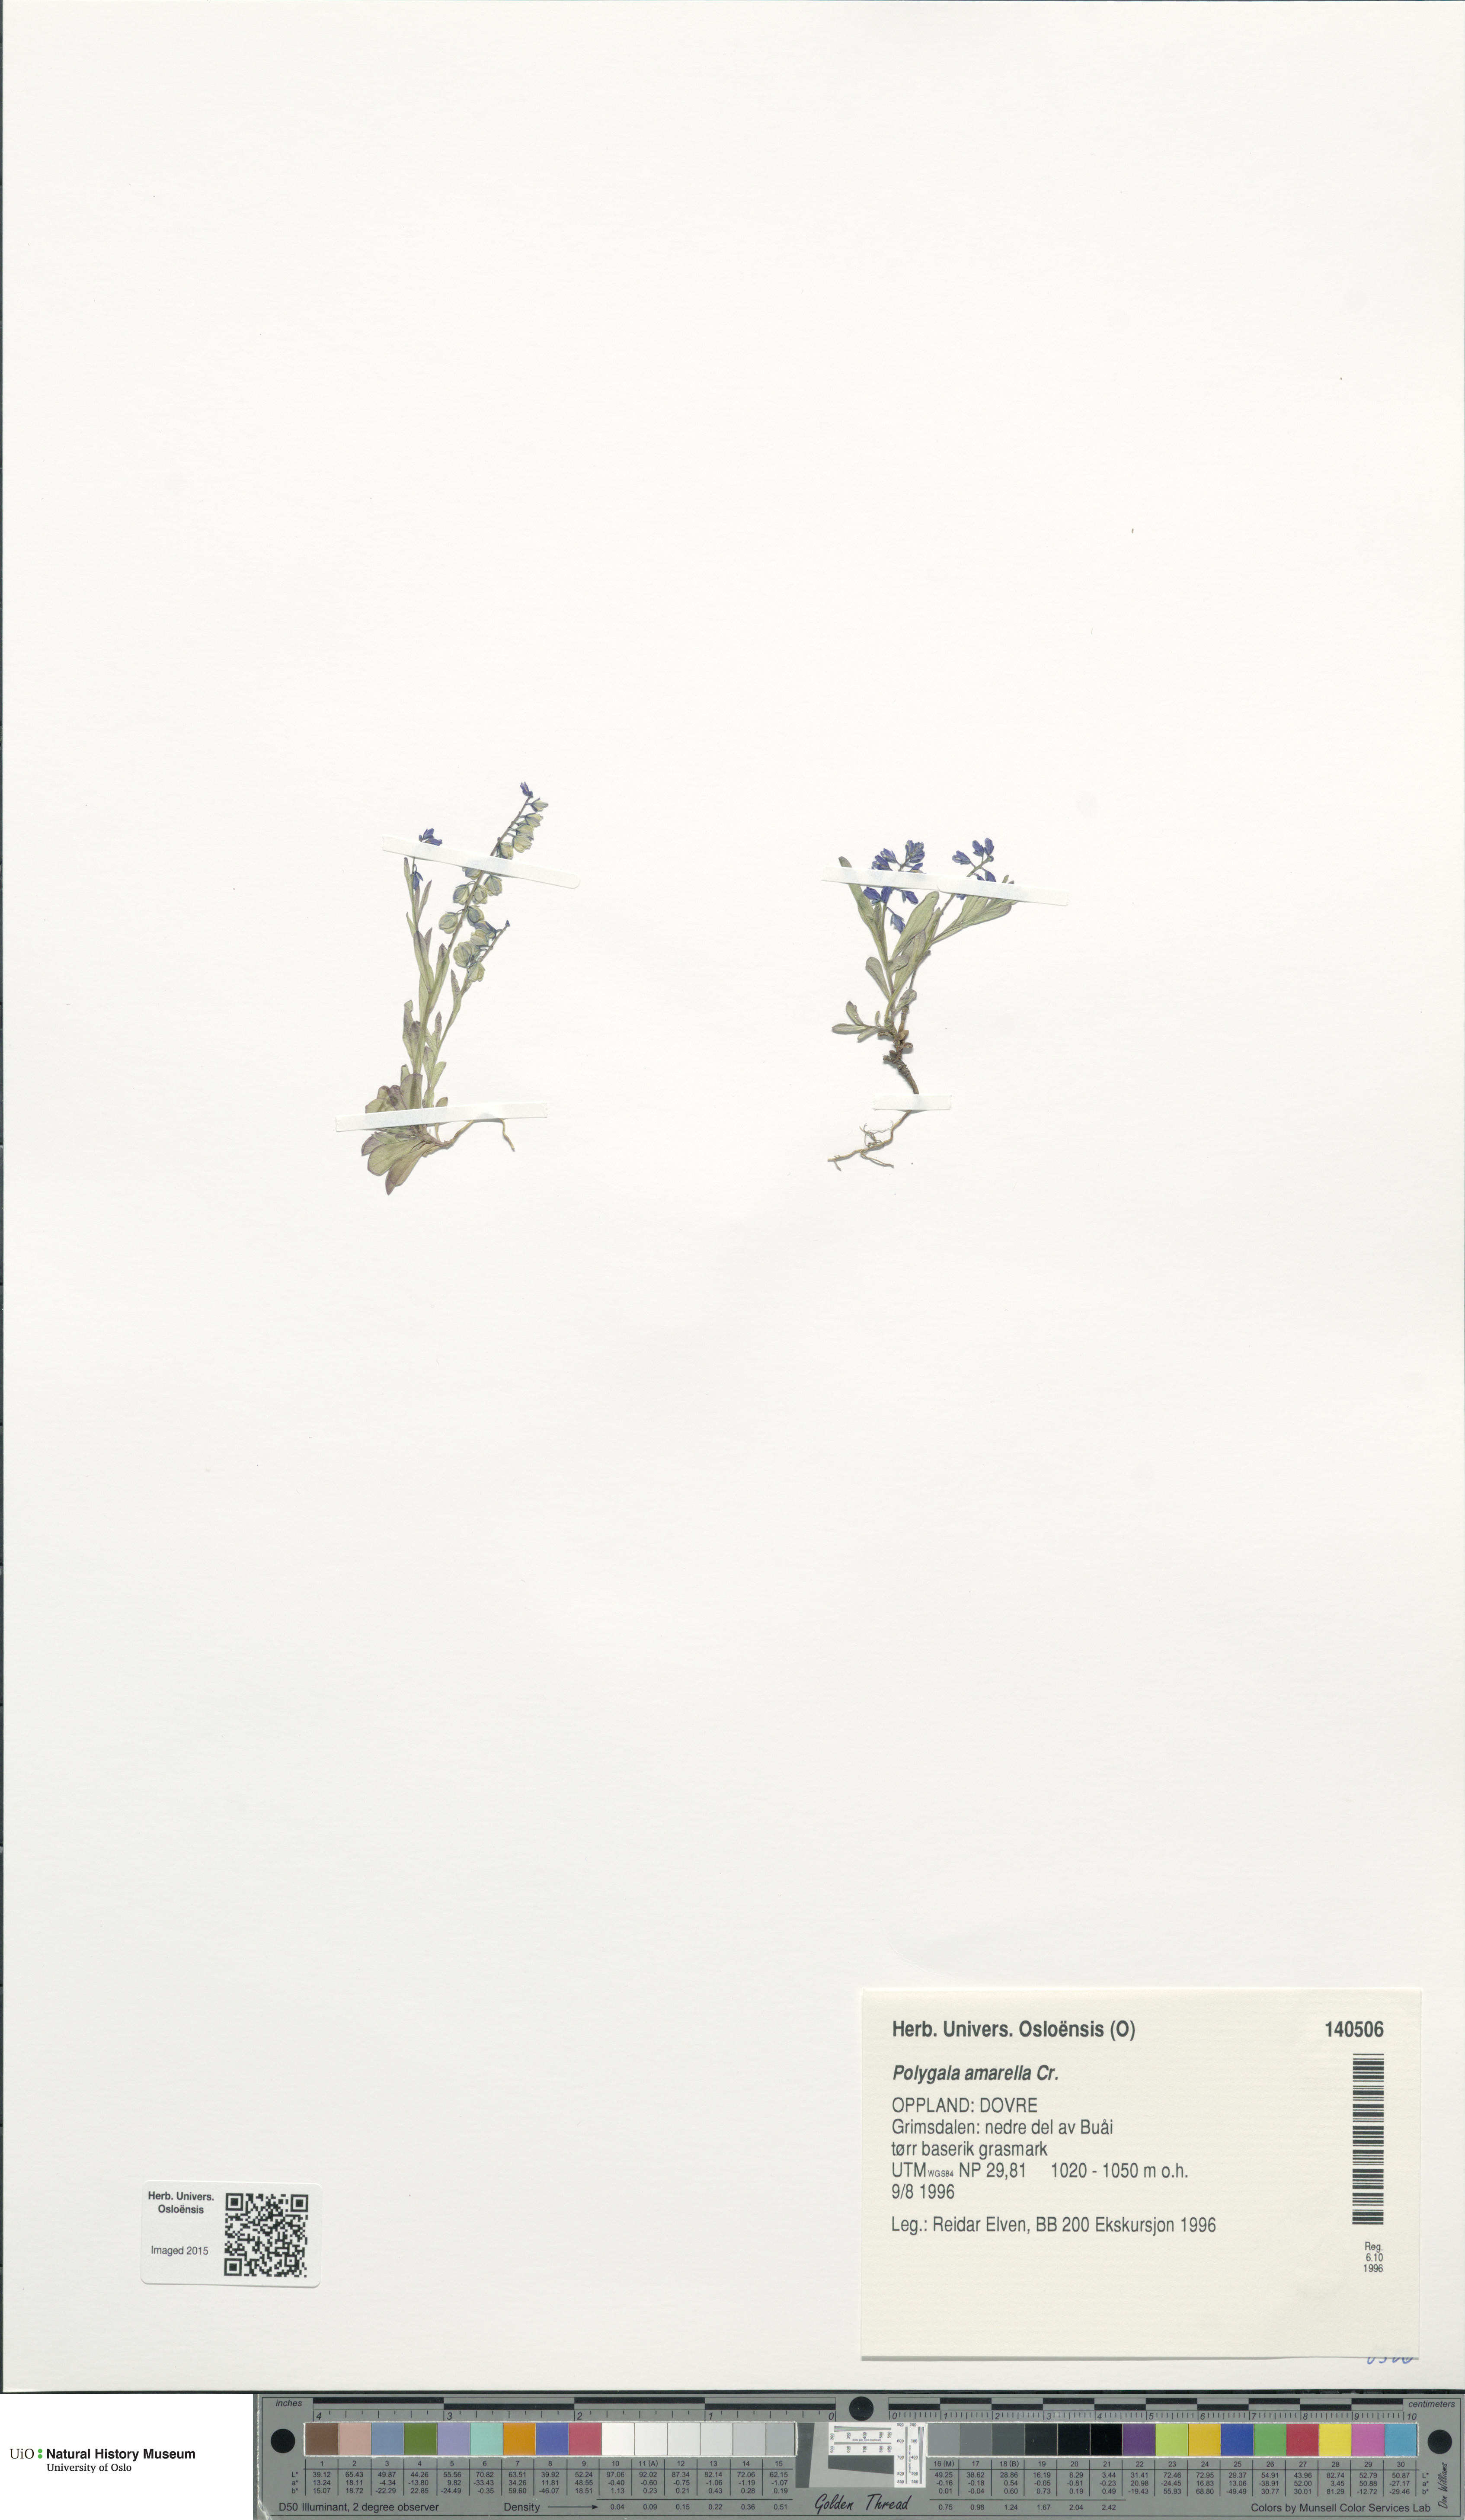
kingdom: Plantae
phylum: Tracheophyta
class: Magnoliopsida
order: Fabales
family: Polygalaceae
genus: Polygala
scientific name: Polygala amarella
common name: Dwarf milkwort
